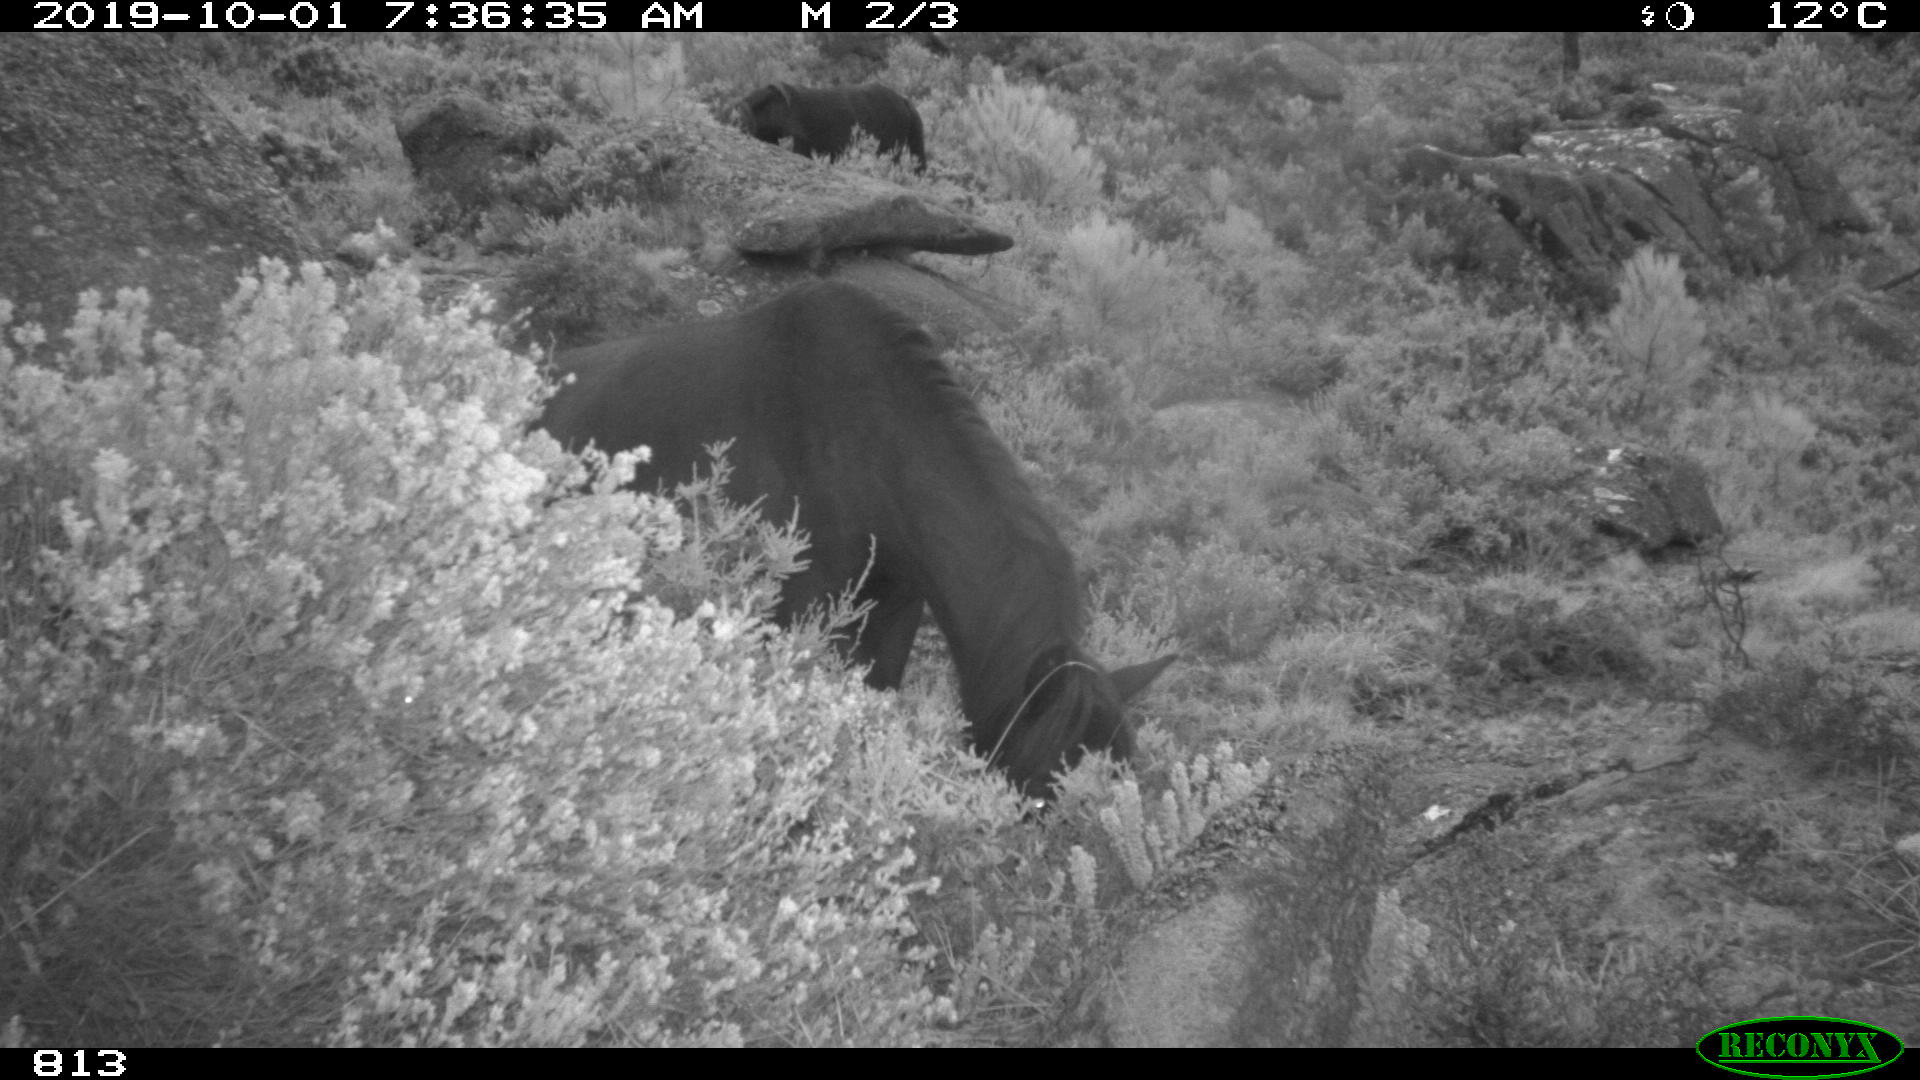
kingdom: Animalia
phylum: Chordata
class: Mammalia
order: Perissodactyla
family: Equidae
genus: Equus
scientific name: Equus caballus
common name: Horse
